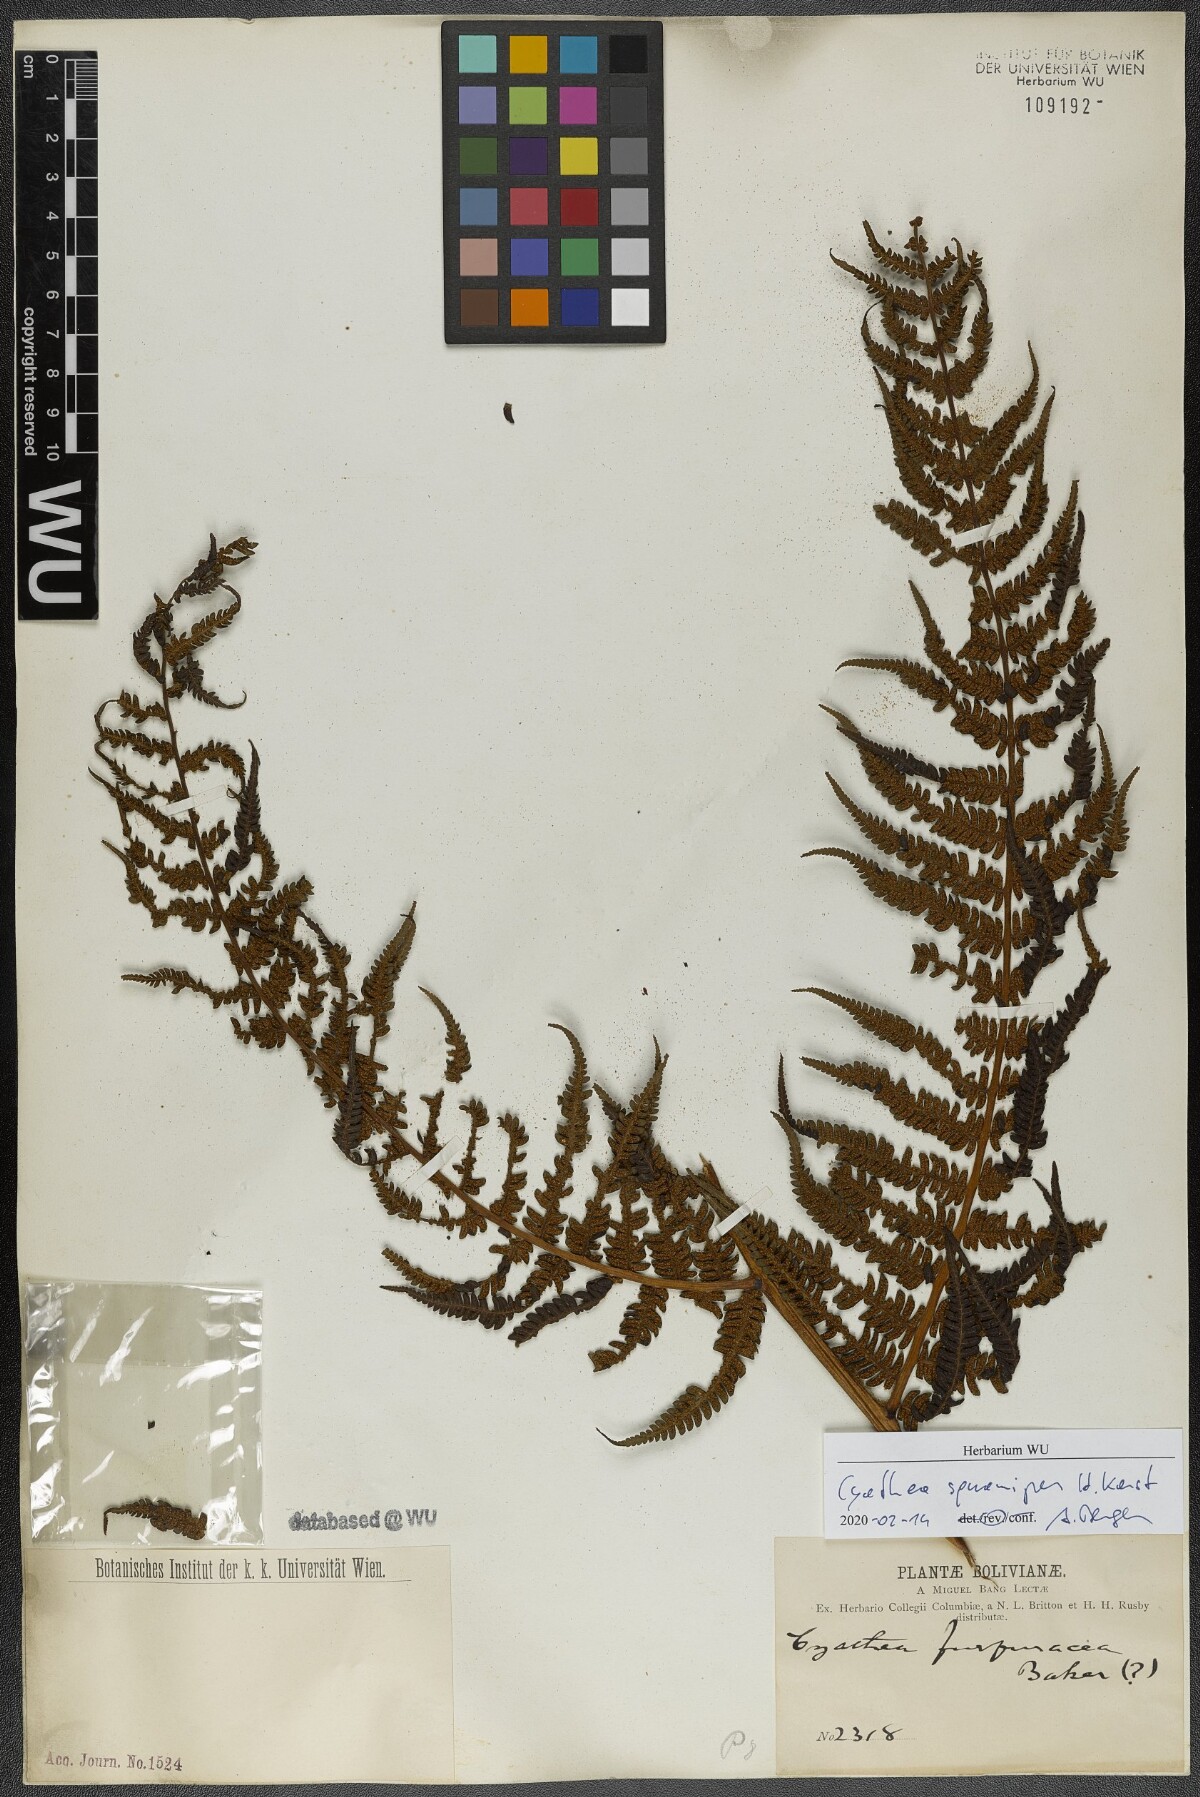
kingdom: Plantae
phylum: Tracheophyta
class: Polypodiopsida
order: Cyatheales
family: Cyatheaceae
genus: Cyathea
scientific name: Cyathea squamipes
